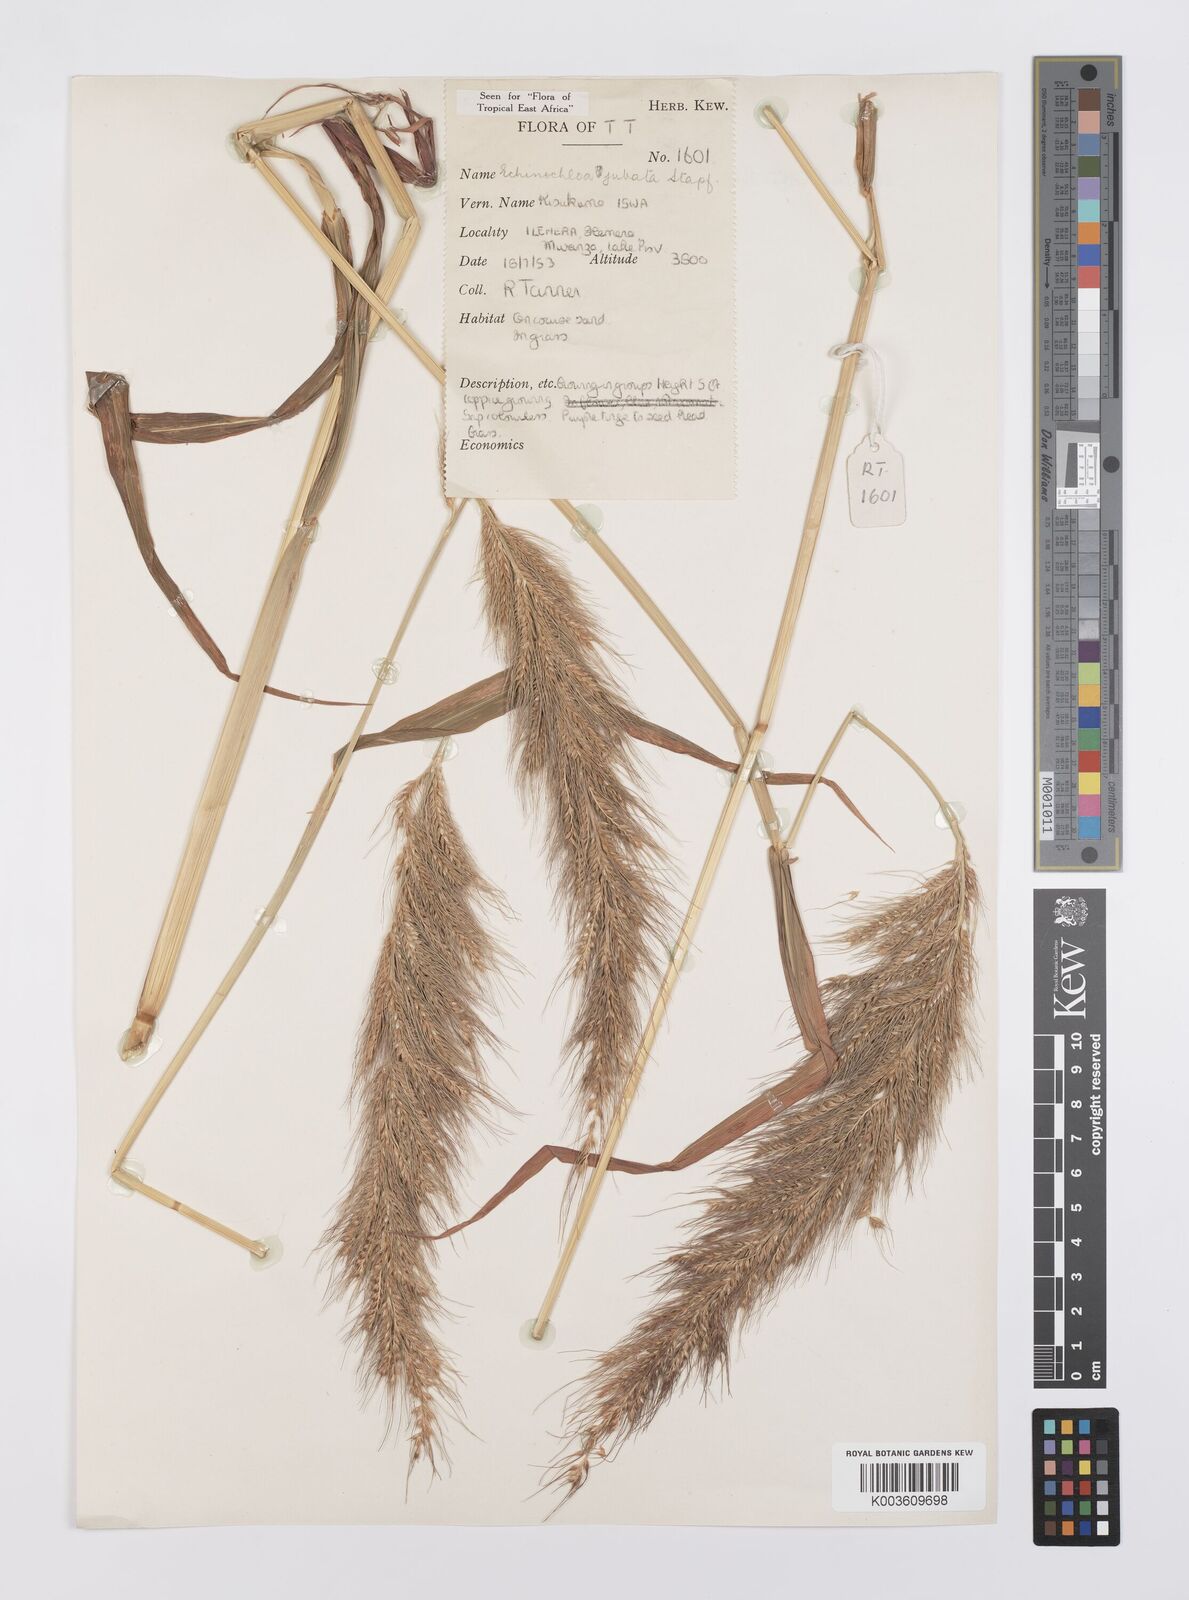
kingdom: Plantae
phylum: Tracheophyta
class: Liliopsida
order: Poales
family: Poaceae
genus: Echinochloa
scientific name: Echinochloa jubata
